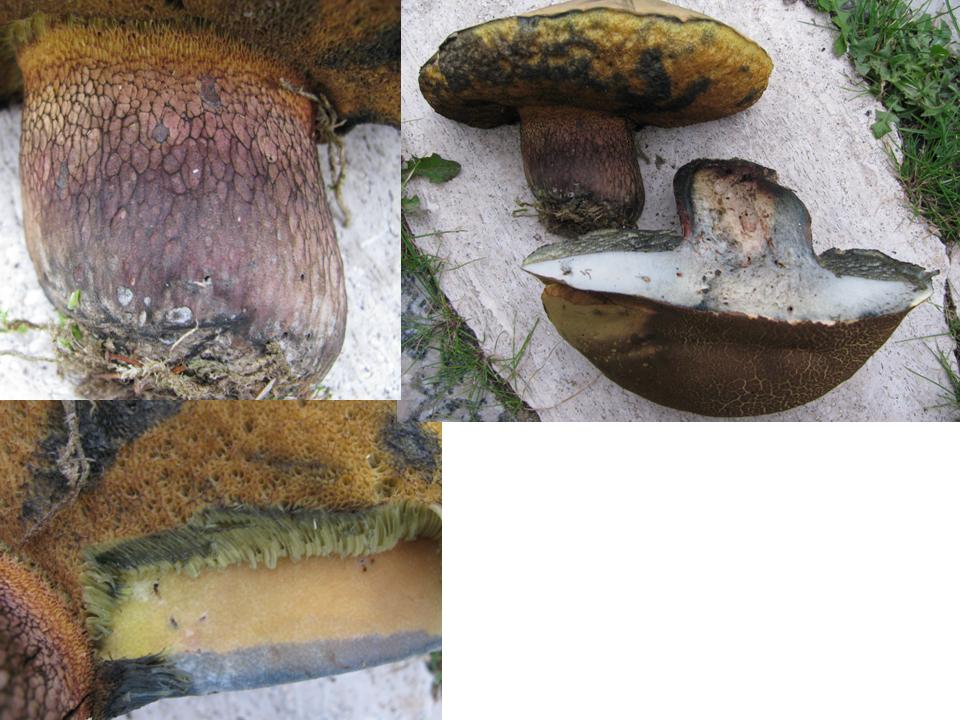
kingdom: Fungi
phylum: Basidiomycota
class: Agaricomycetes
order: Boletales
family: Boletaceae
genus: Suillellus
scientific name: Suillellus luridus
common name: netstokket indigorørhat
